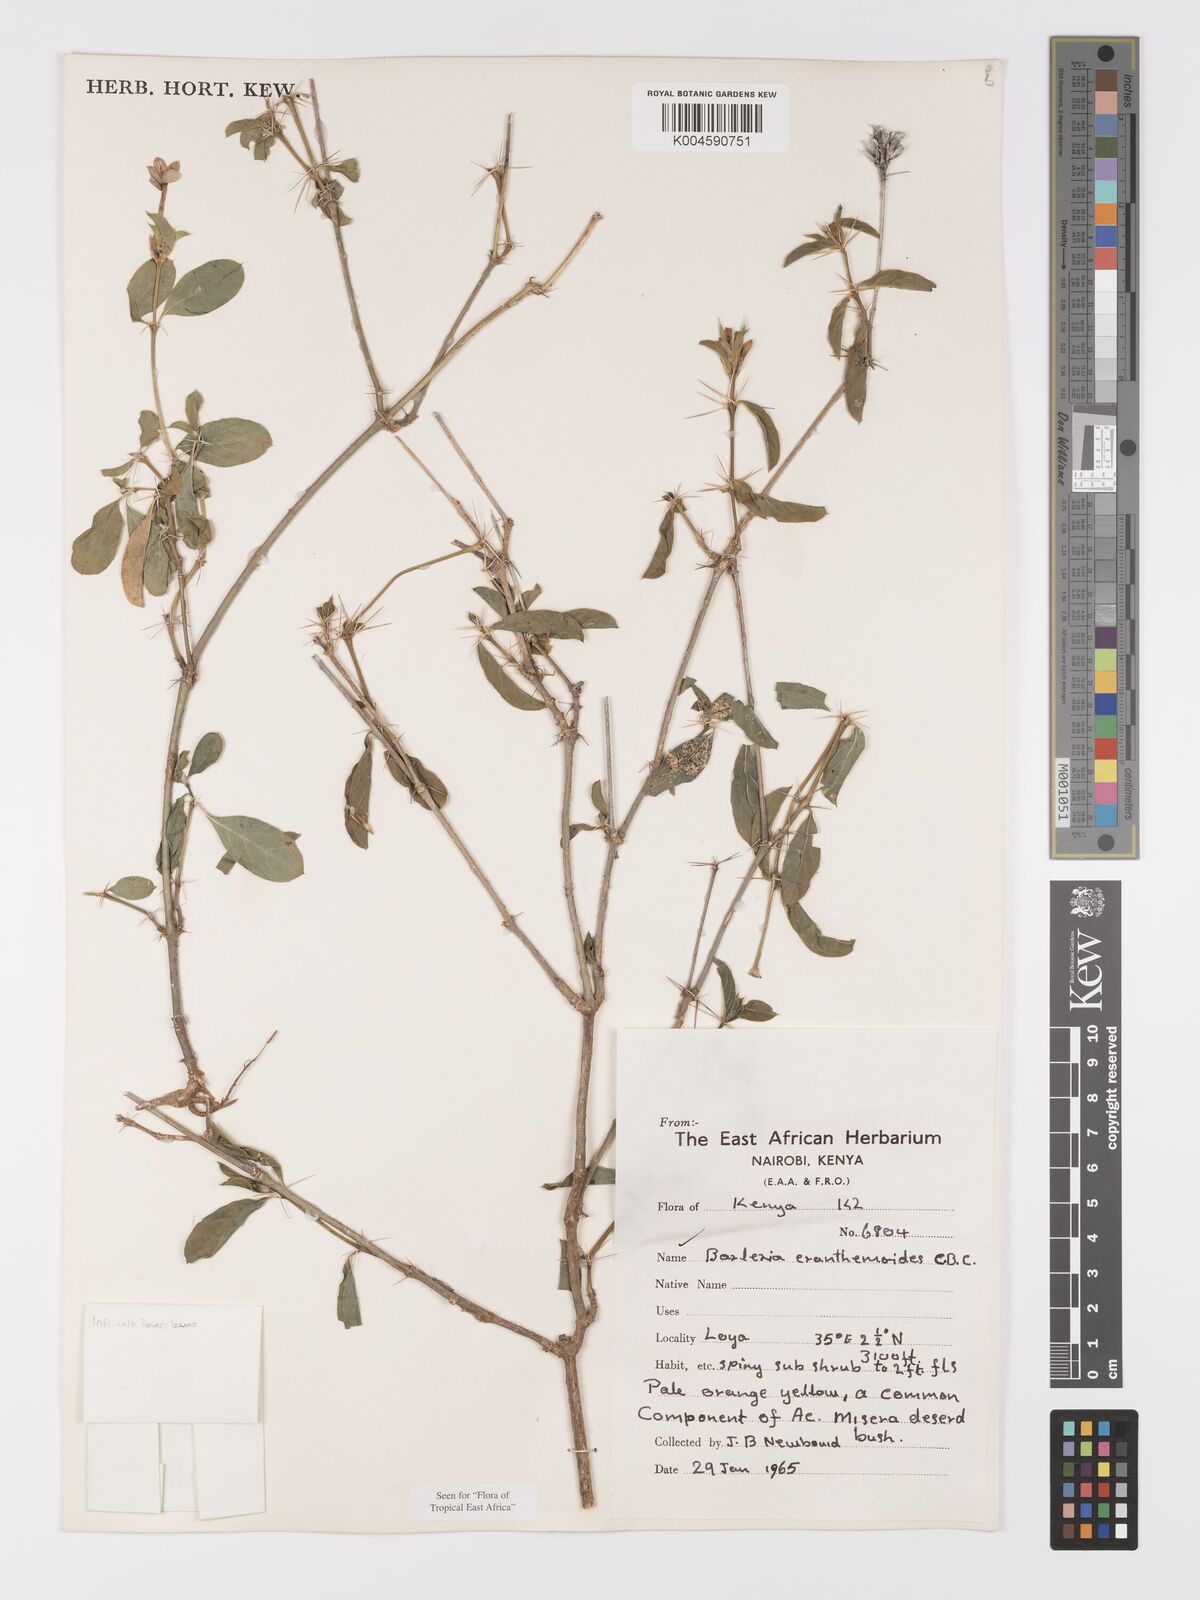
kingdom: Plantae
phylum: Tracheophyta
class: Magnoliopsida
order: Lamiales
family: Acanthaceae
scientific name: Acanthaceae
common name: Acanthaceae
